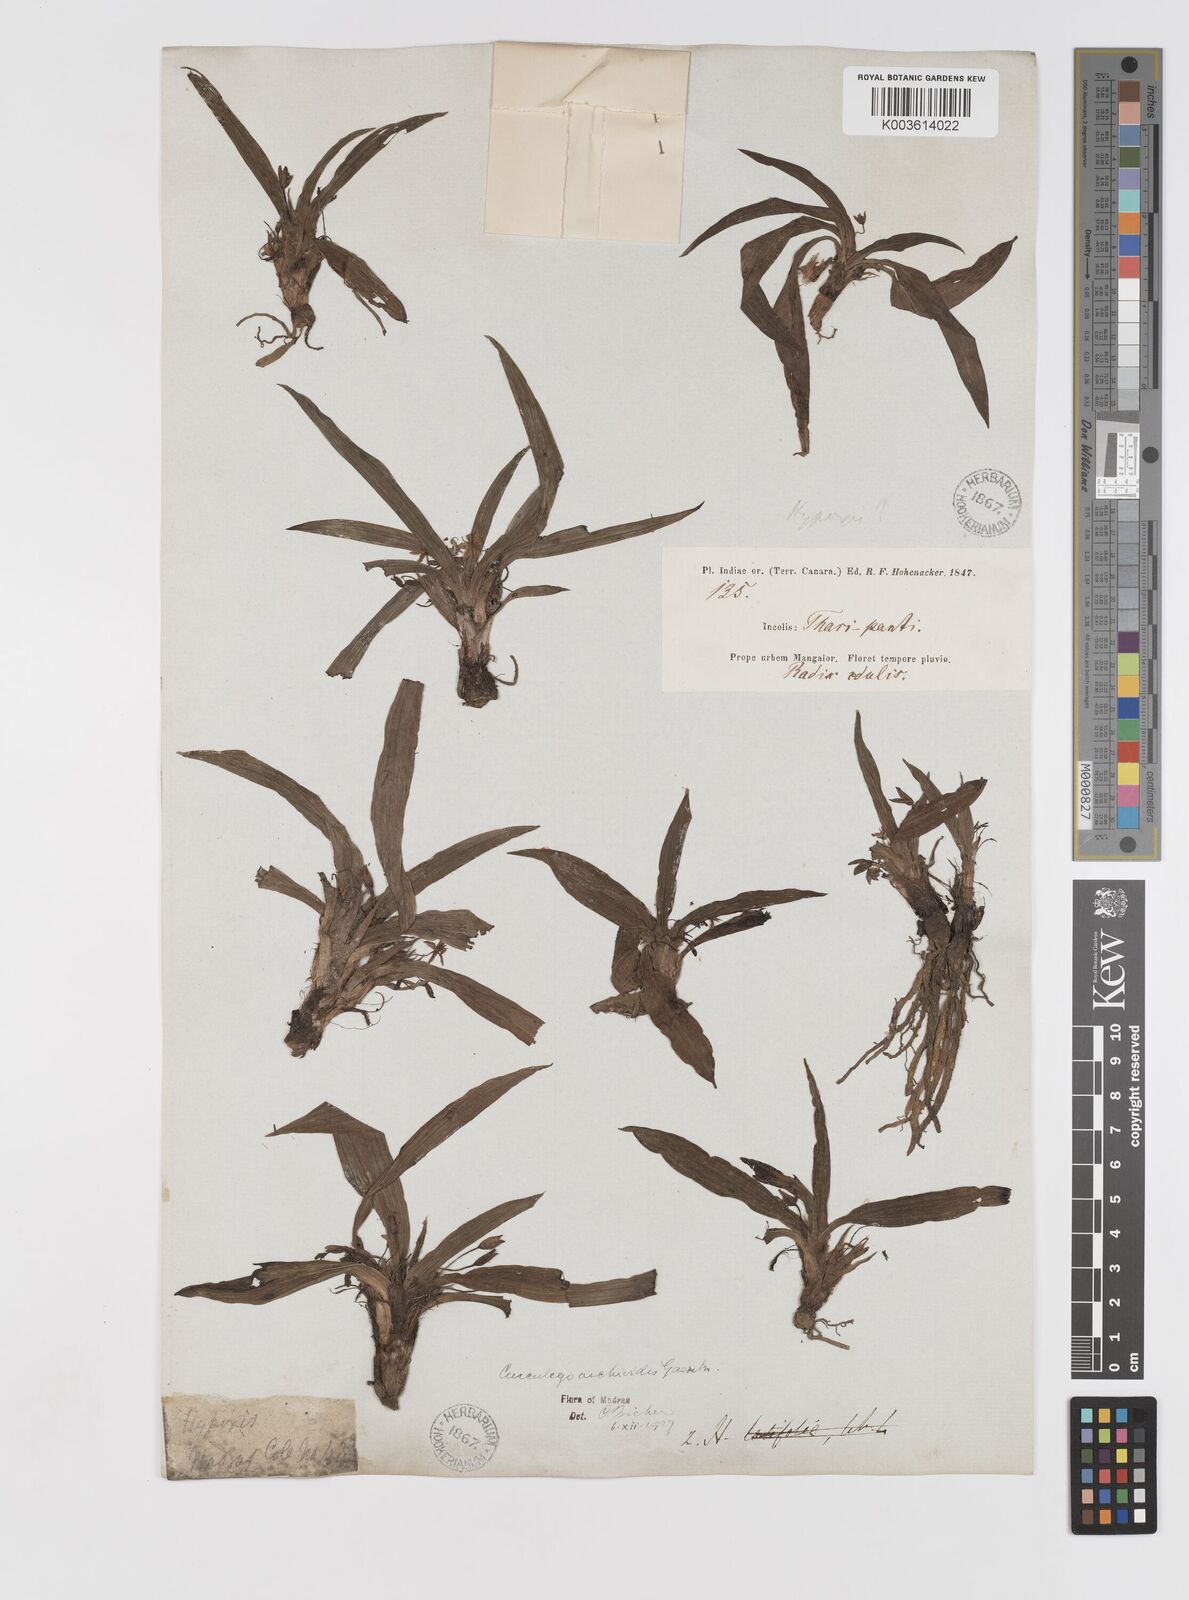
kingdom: Plantae
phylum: Tracheophyta
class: Liliopsida
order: Asparagales
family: Hypoxidaceae
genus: Curculigo
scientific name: Curculigo orchioides
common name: Golden eye-grass
